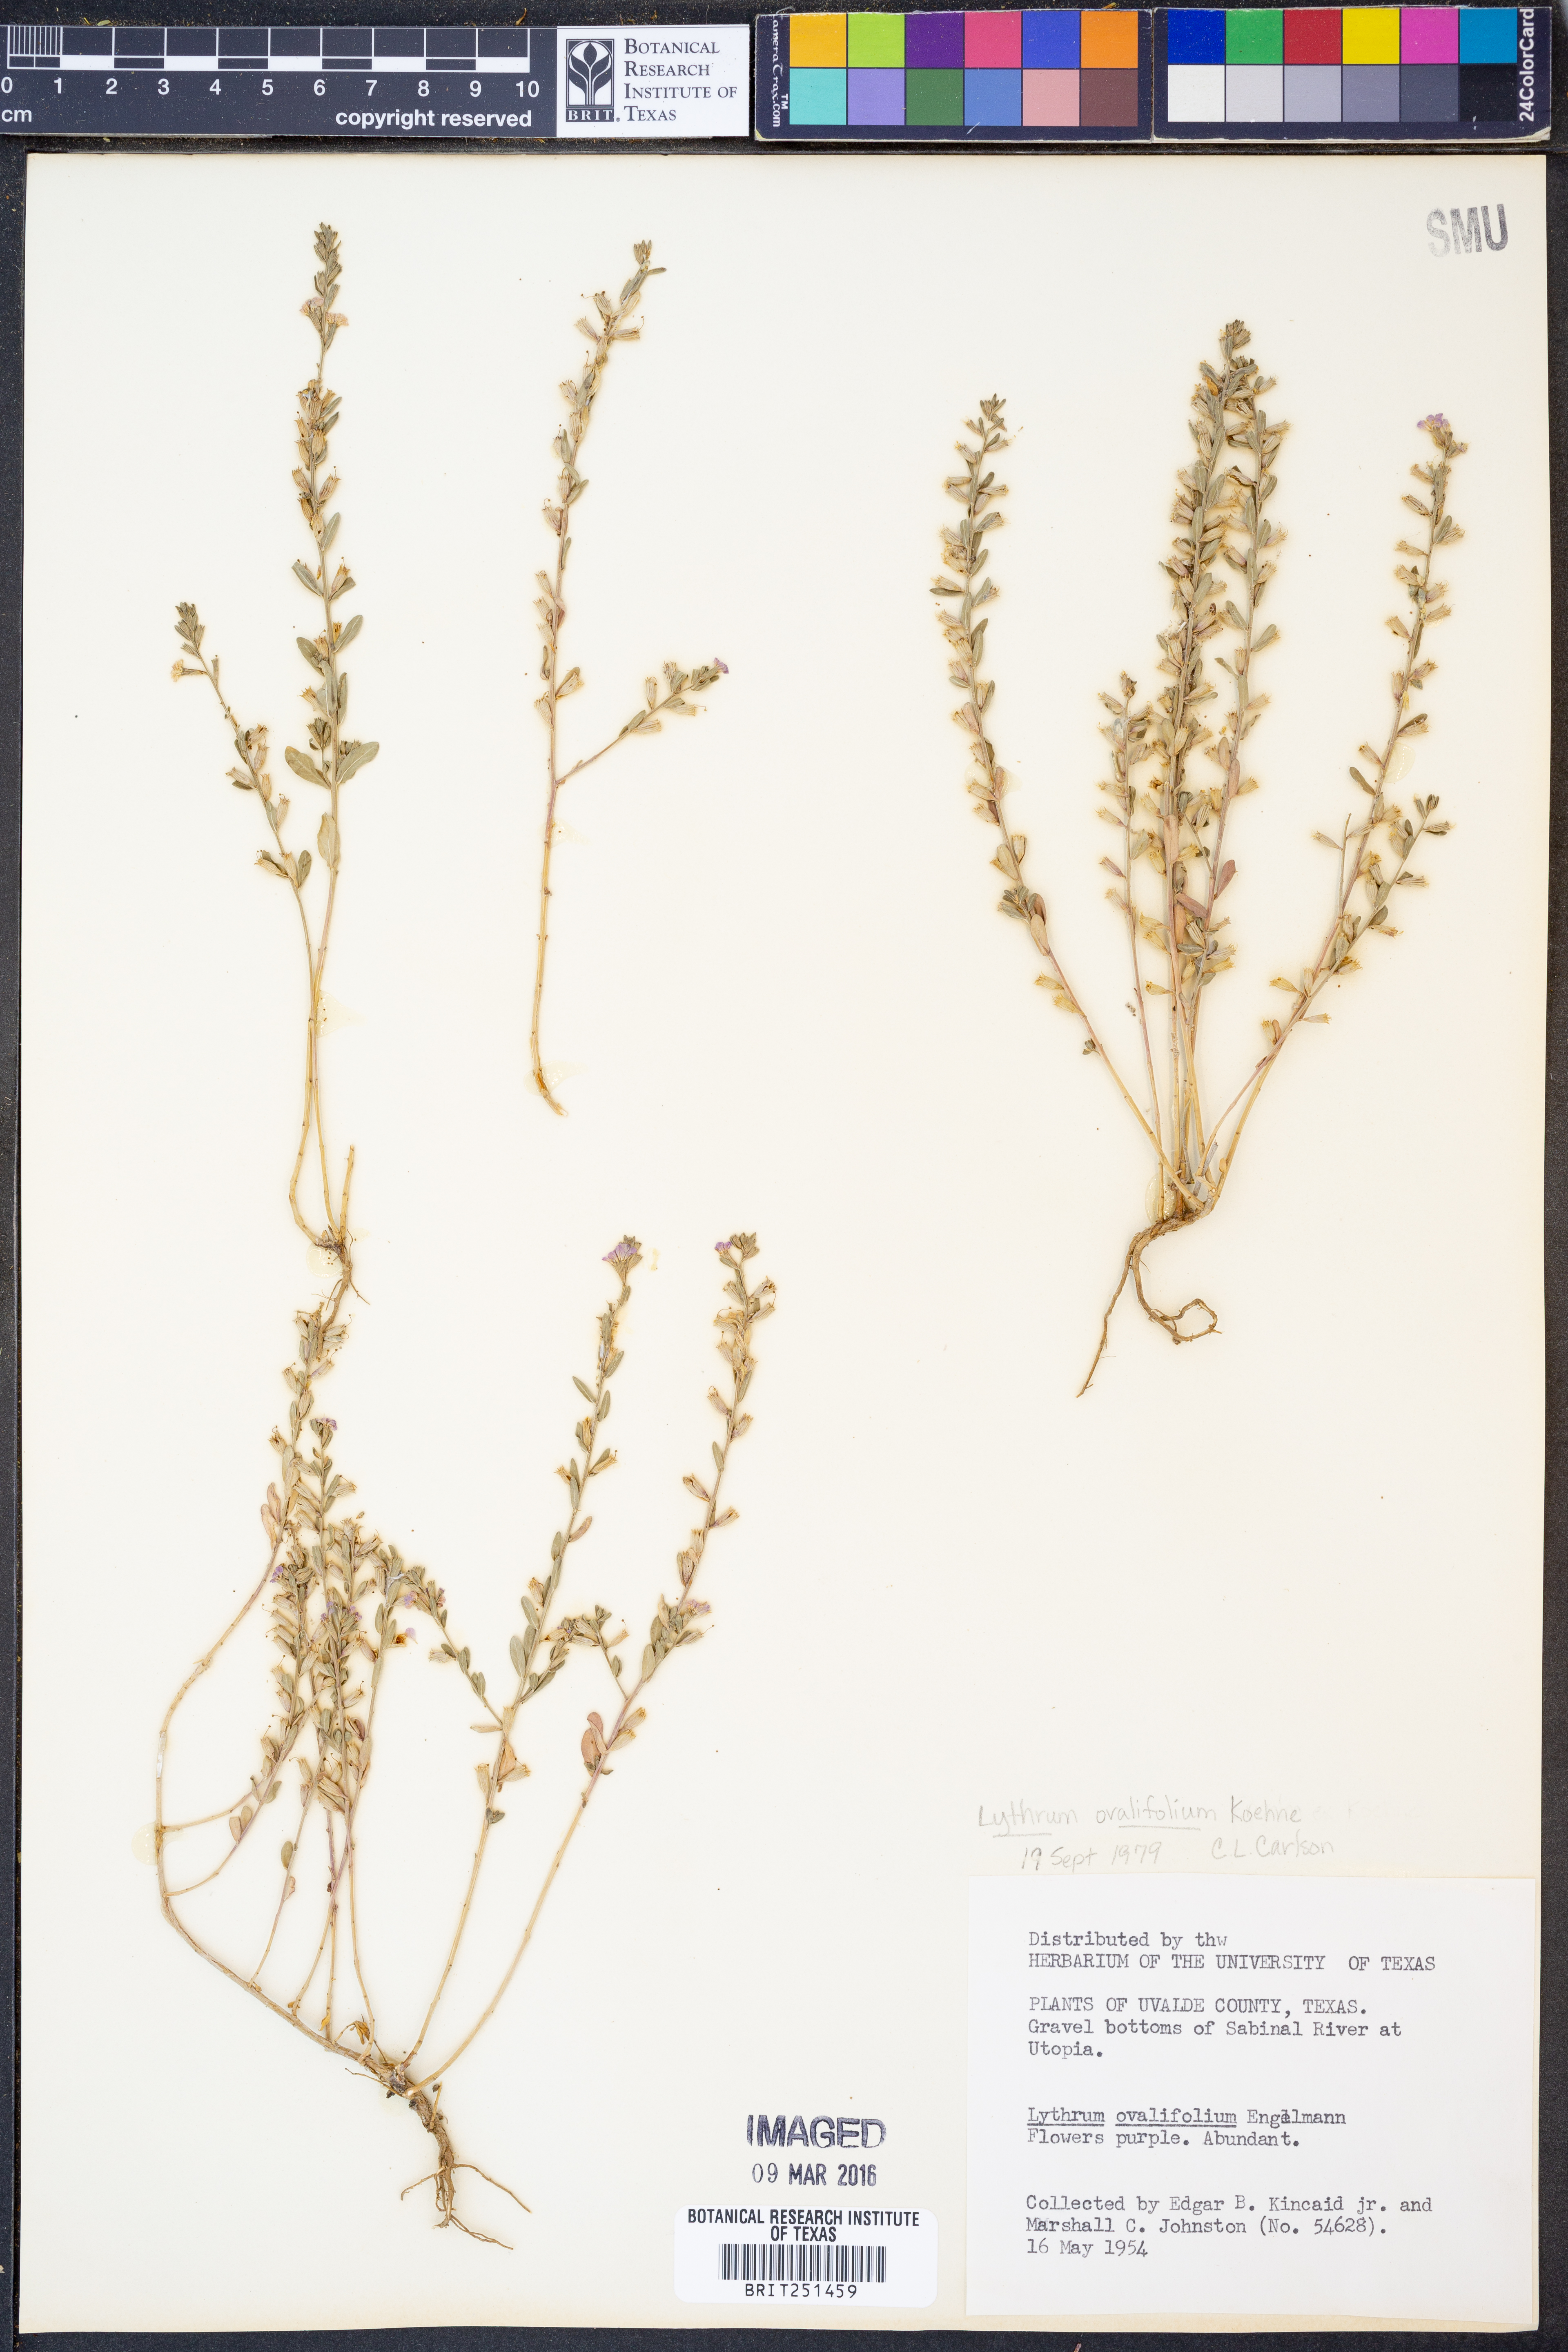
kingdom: Plantae
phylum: Tracheophyta
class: Magnoliopsida
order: Myrtales
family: Lythraceae
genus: Lythrum
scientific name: Lythrum ovalifolium
